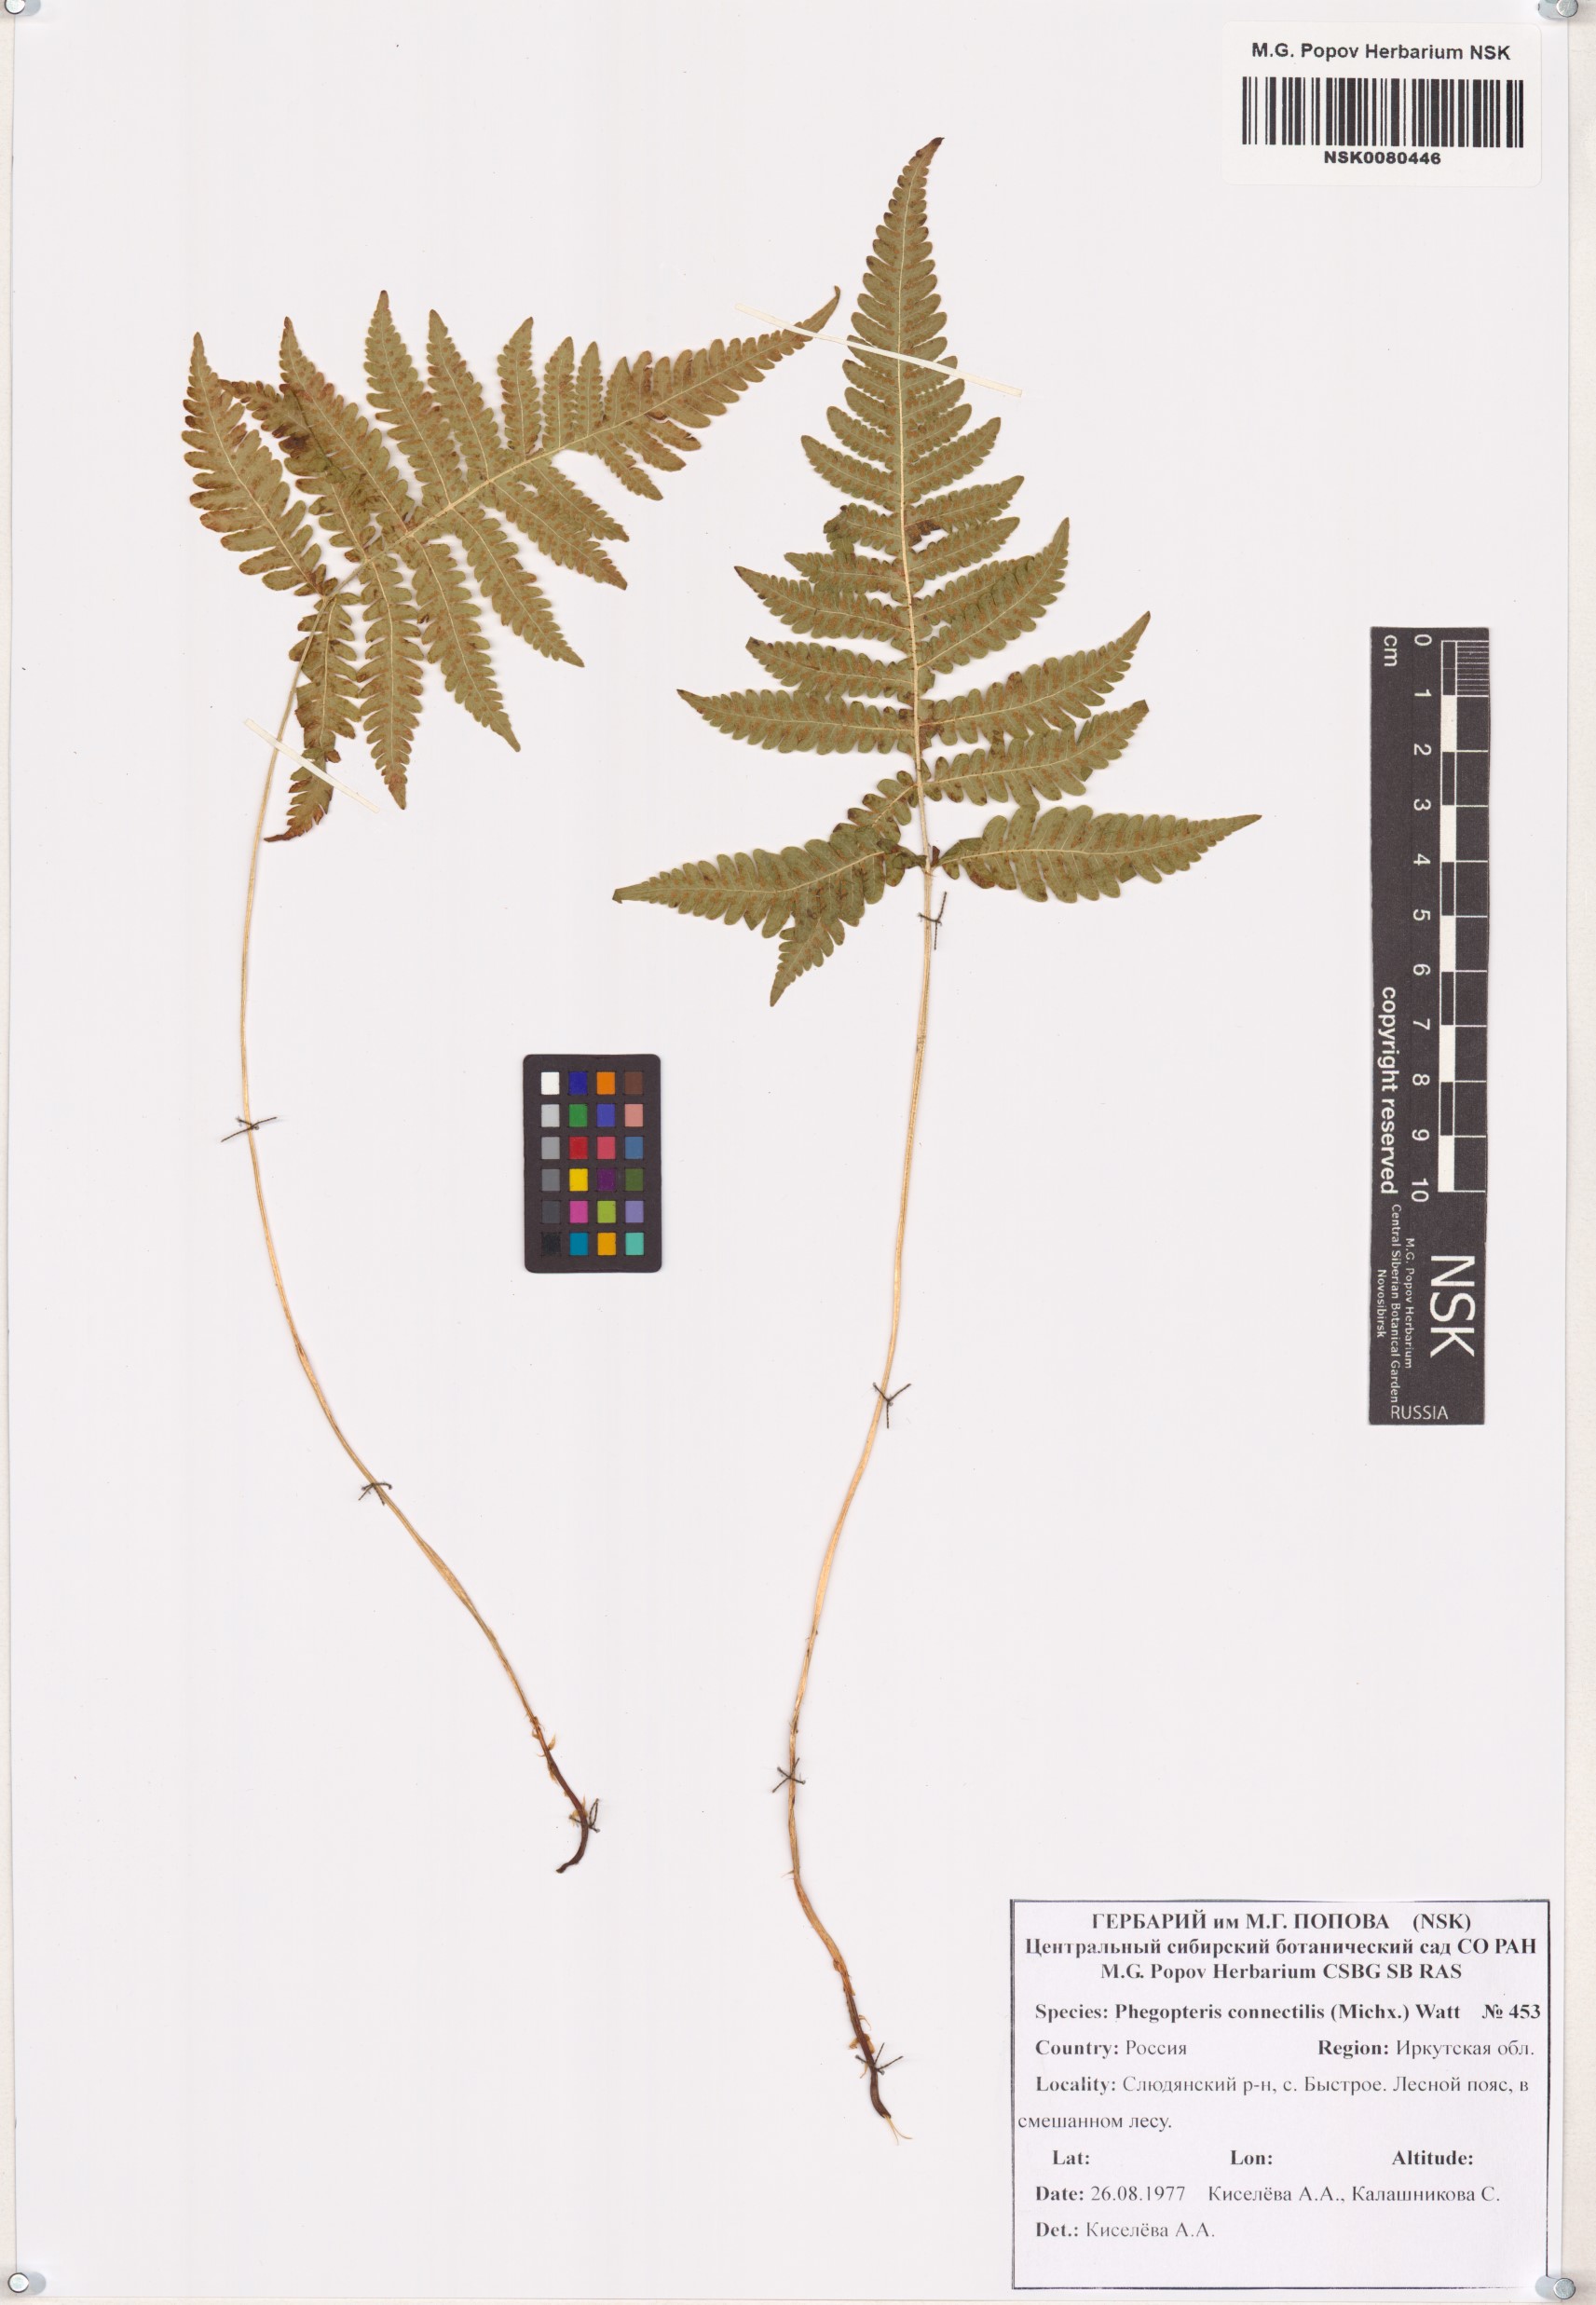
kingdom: Plantae
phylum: Tracheophyta
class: Polypodiopsida
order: Polypodiales
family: Thelypteridaceae
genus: Phegopteris
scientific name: Phegopteris connectilis
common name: Beech fern
